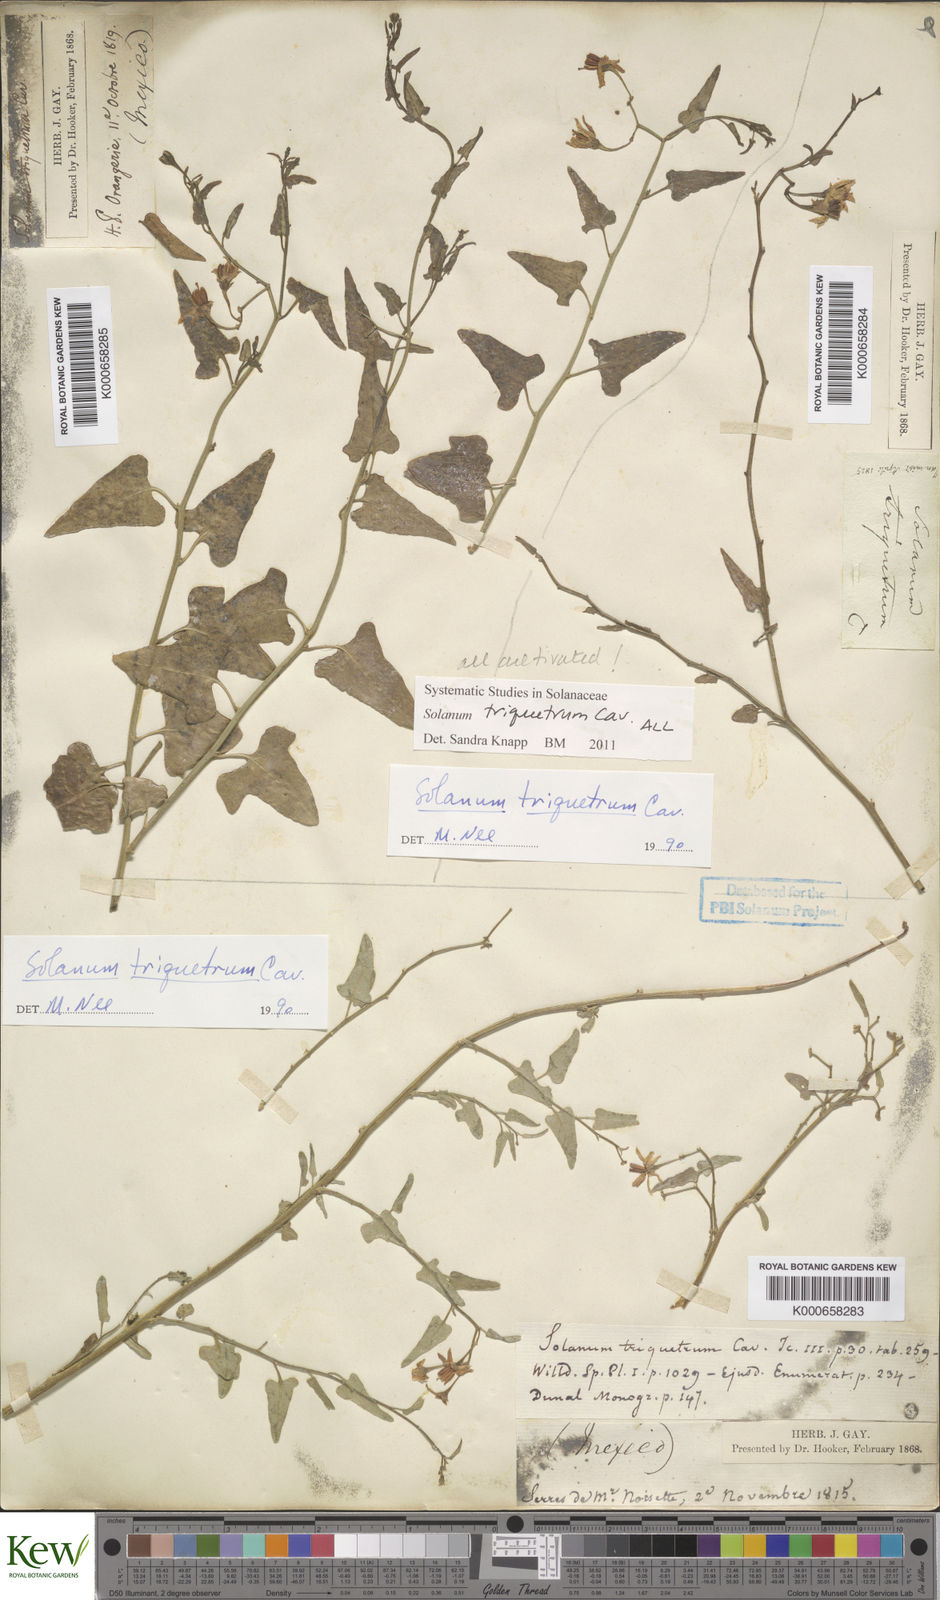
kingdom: Plantae
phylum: Tracheophyta
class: Magnoliopsida
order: Solanales
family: Solanaceae
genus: Solanum
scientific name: Solanum triquetrum
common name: Texas nightshade
